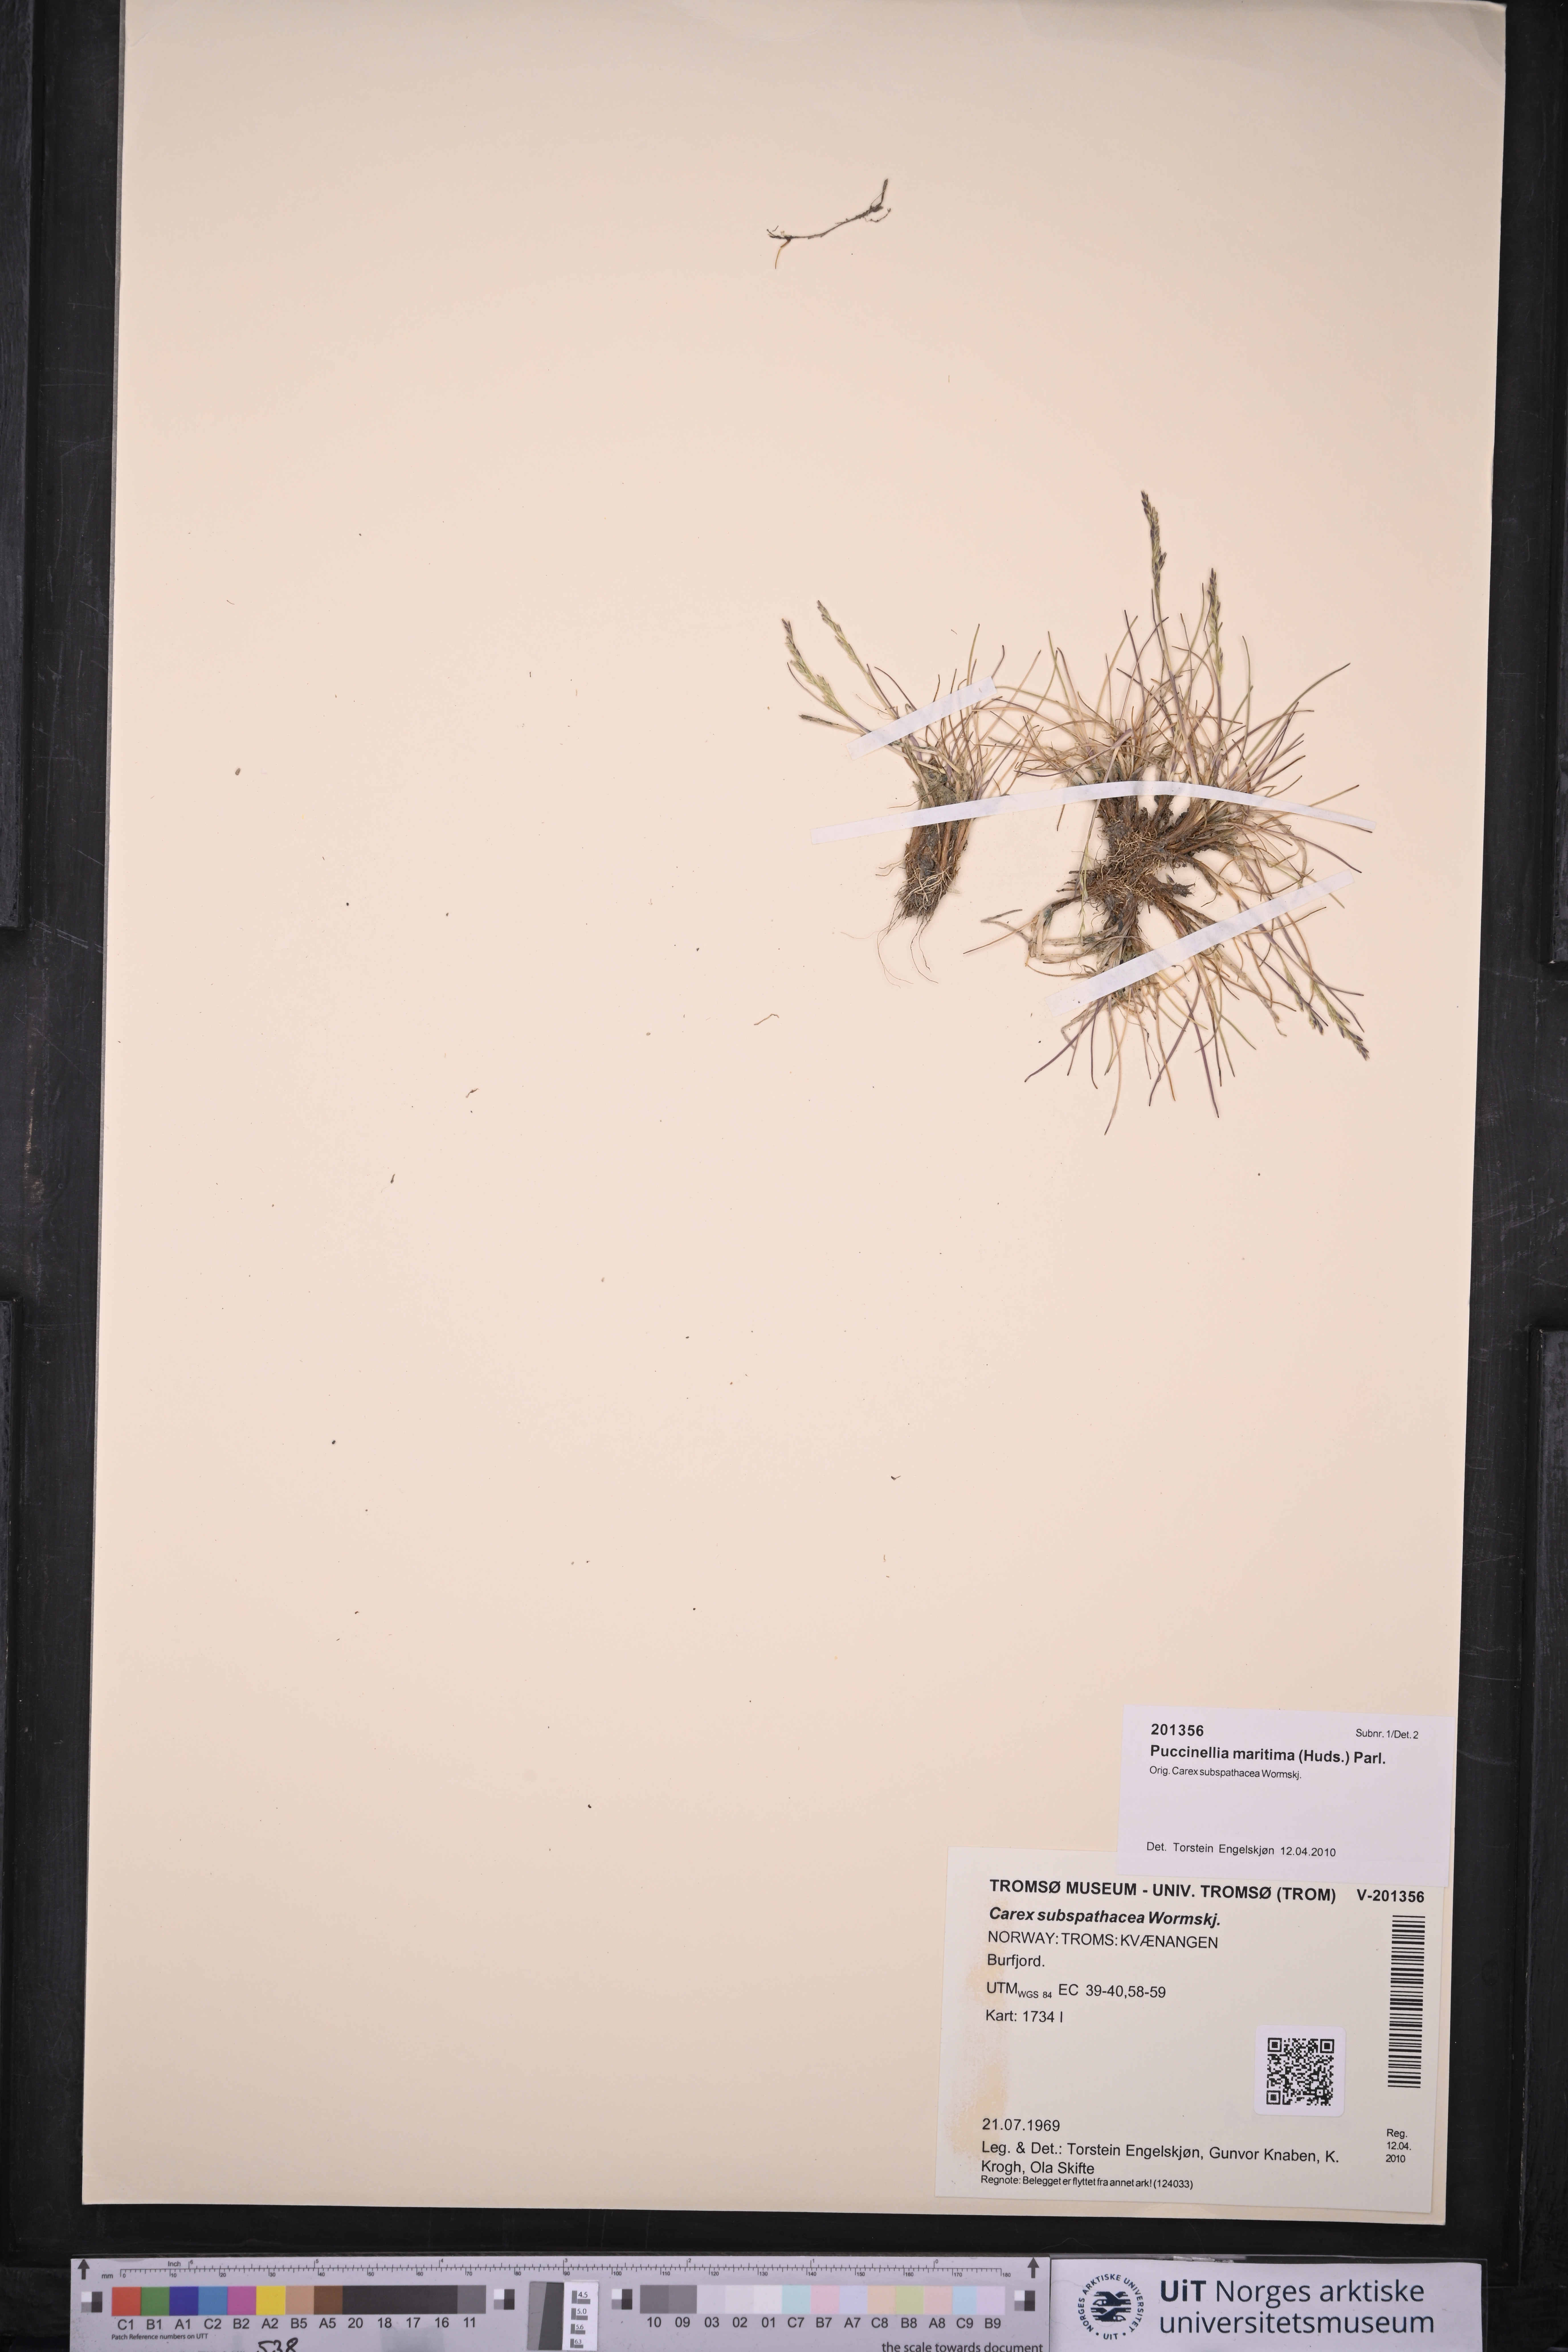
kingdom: Plantae
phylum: Tracheophyta
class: Liliopsida
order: Poales
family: Poaceae
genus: Puccinellia
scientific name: Puccinellia maritima
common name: Common saltmarsh grass
